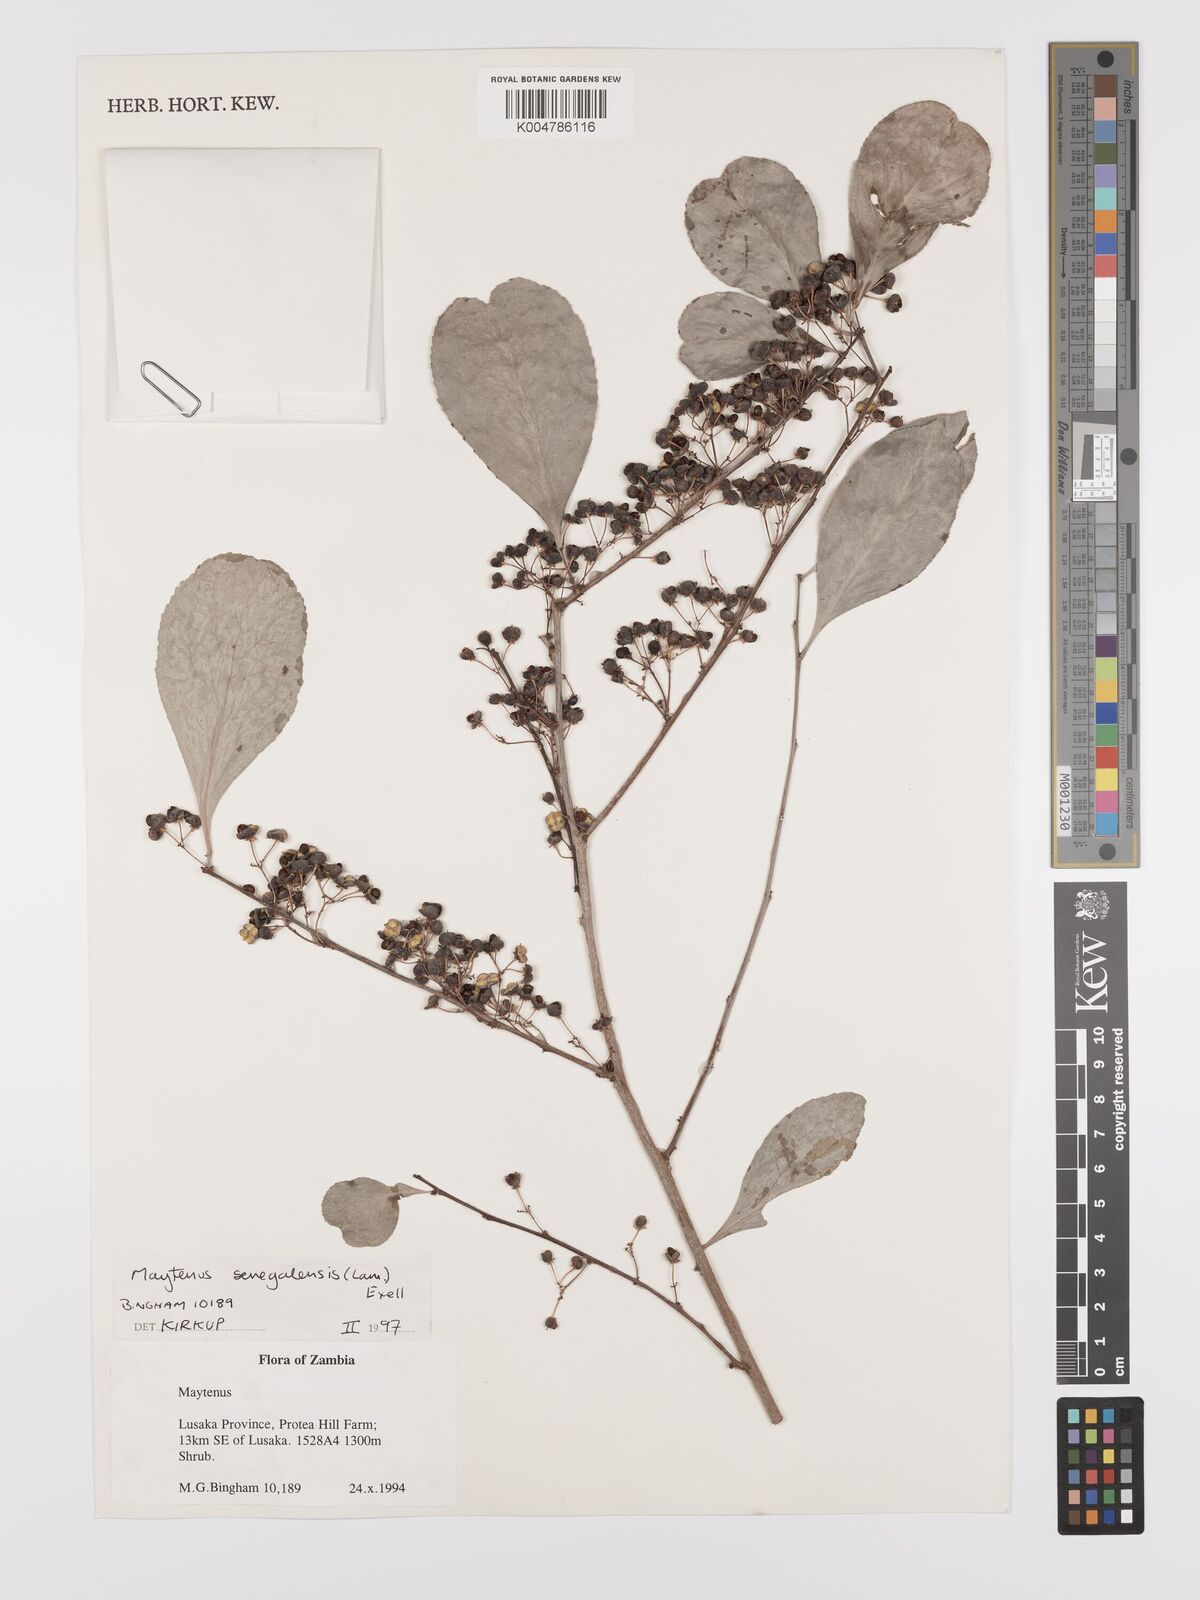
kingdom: Plantae
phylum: Tracheophyta
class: Magnoliopsida
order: Celastrales
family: Celastraceae
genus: Gymnosporia
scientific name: Gymnosporia senegalensis
